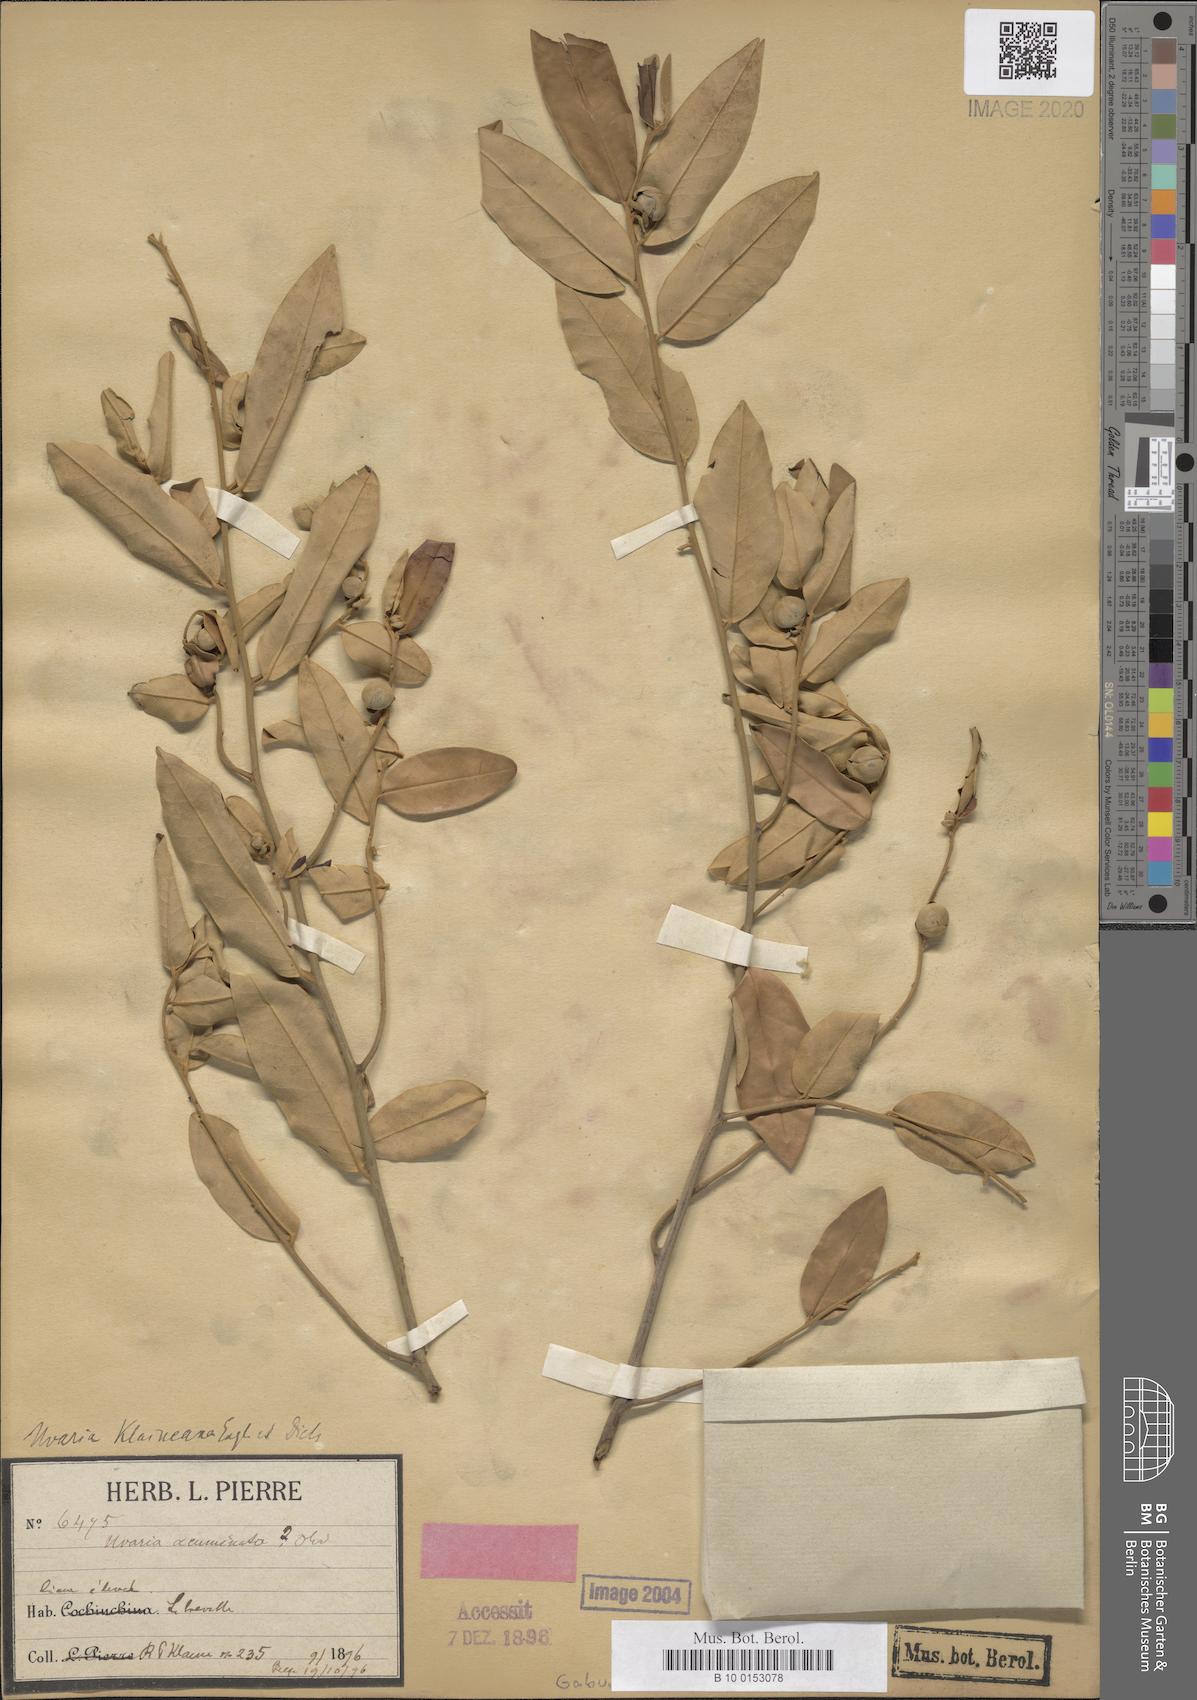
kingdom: Plantae
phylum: Tracheophyta
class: Magnoliopsida
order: Magnoliales
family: Annonaceae
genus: Uvaria
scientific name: Uvaria klaineana
